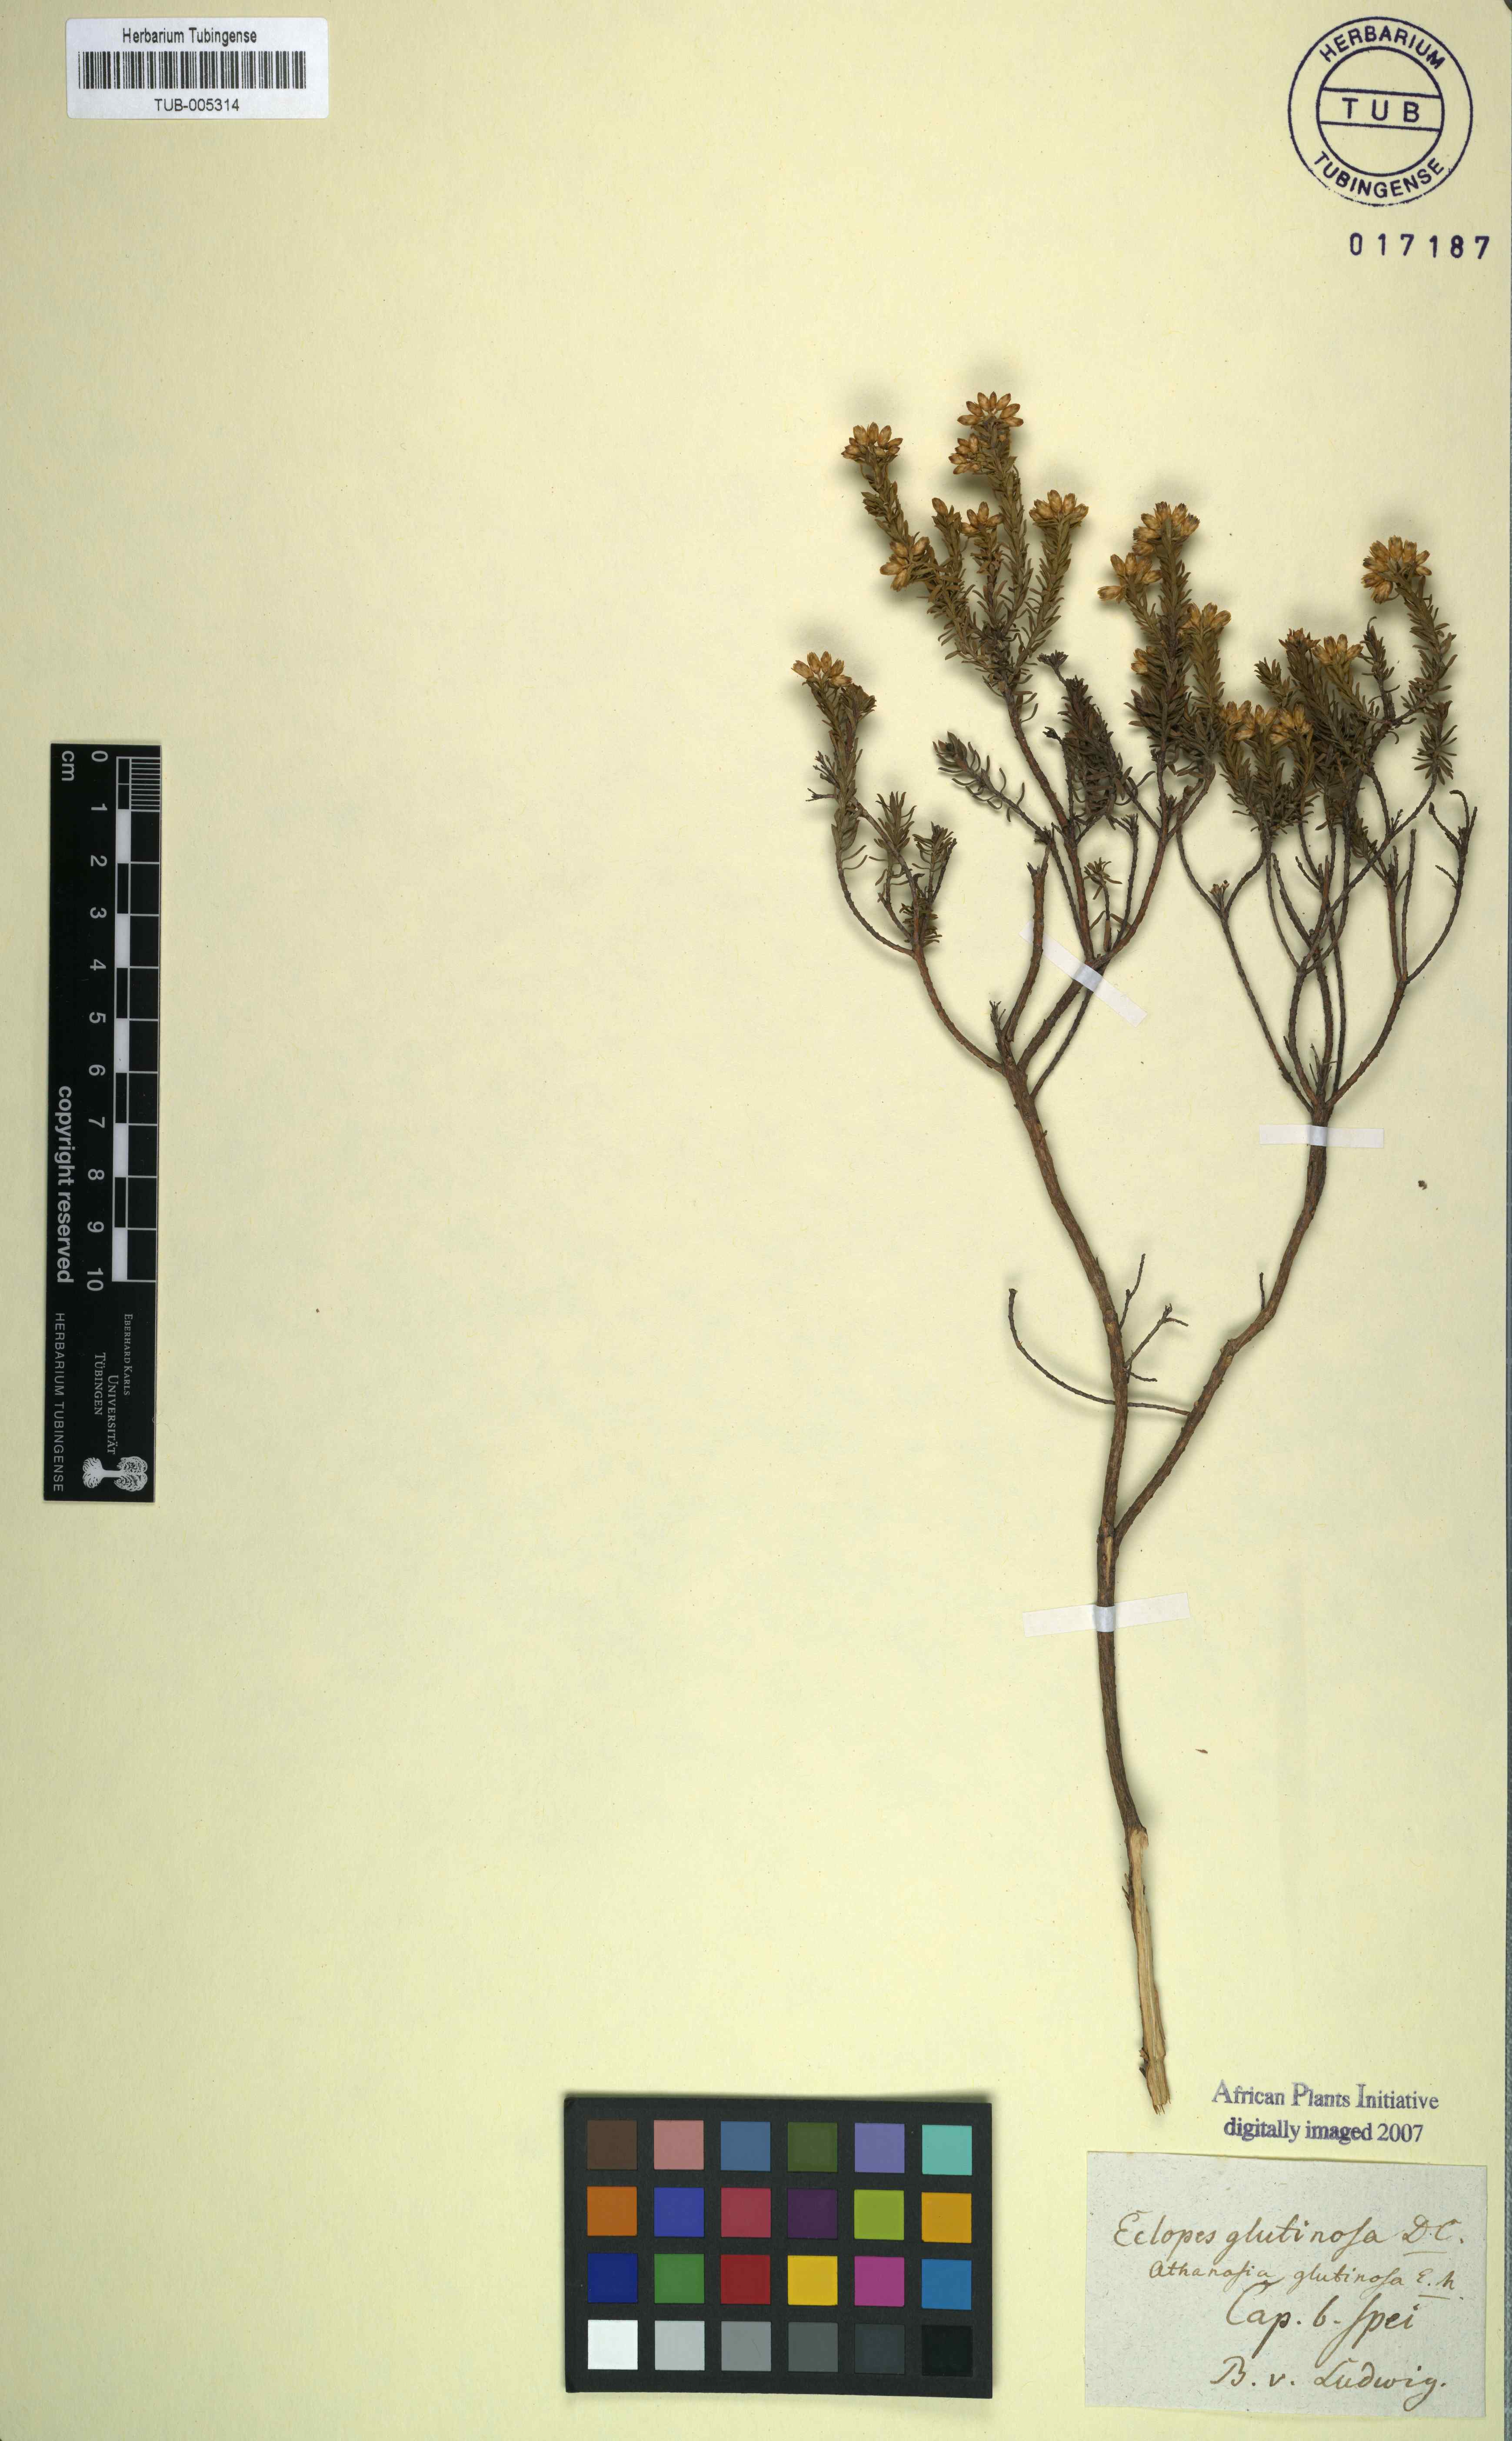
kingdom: Plantae
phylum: Tracheophyta
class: Magnoliopsida
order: Asterales
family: Asteraceae
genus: Oedera
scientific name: Oedera viscosa
